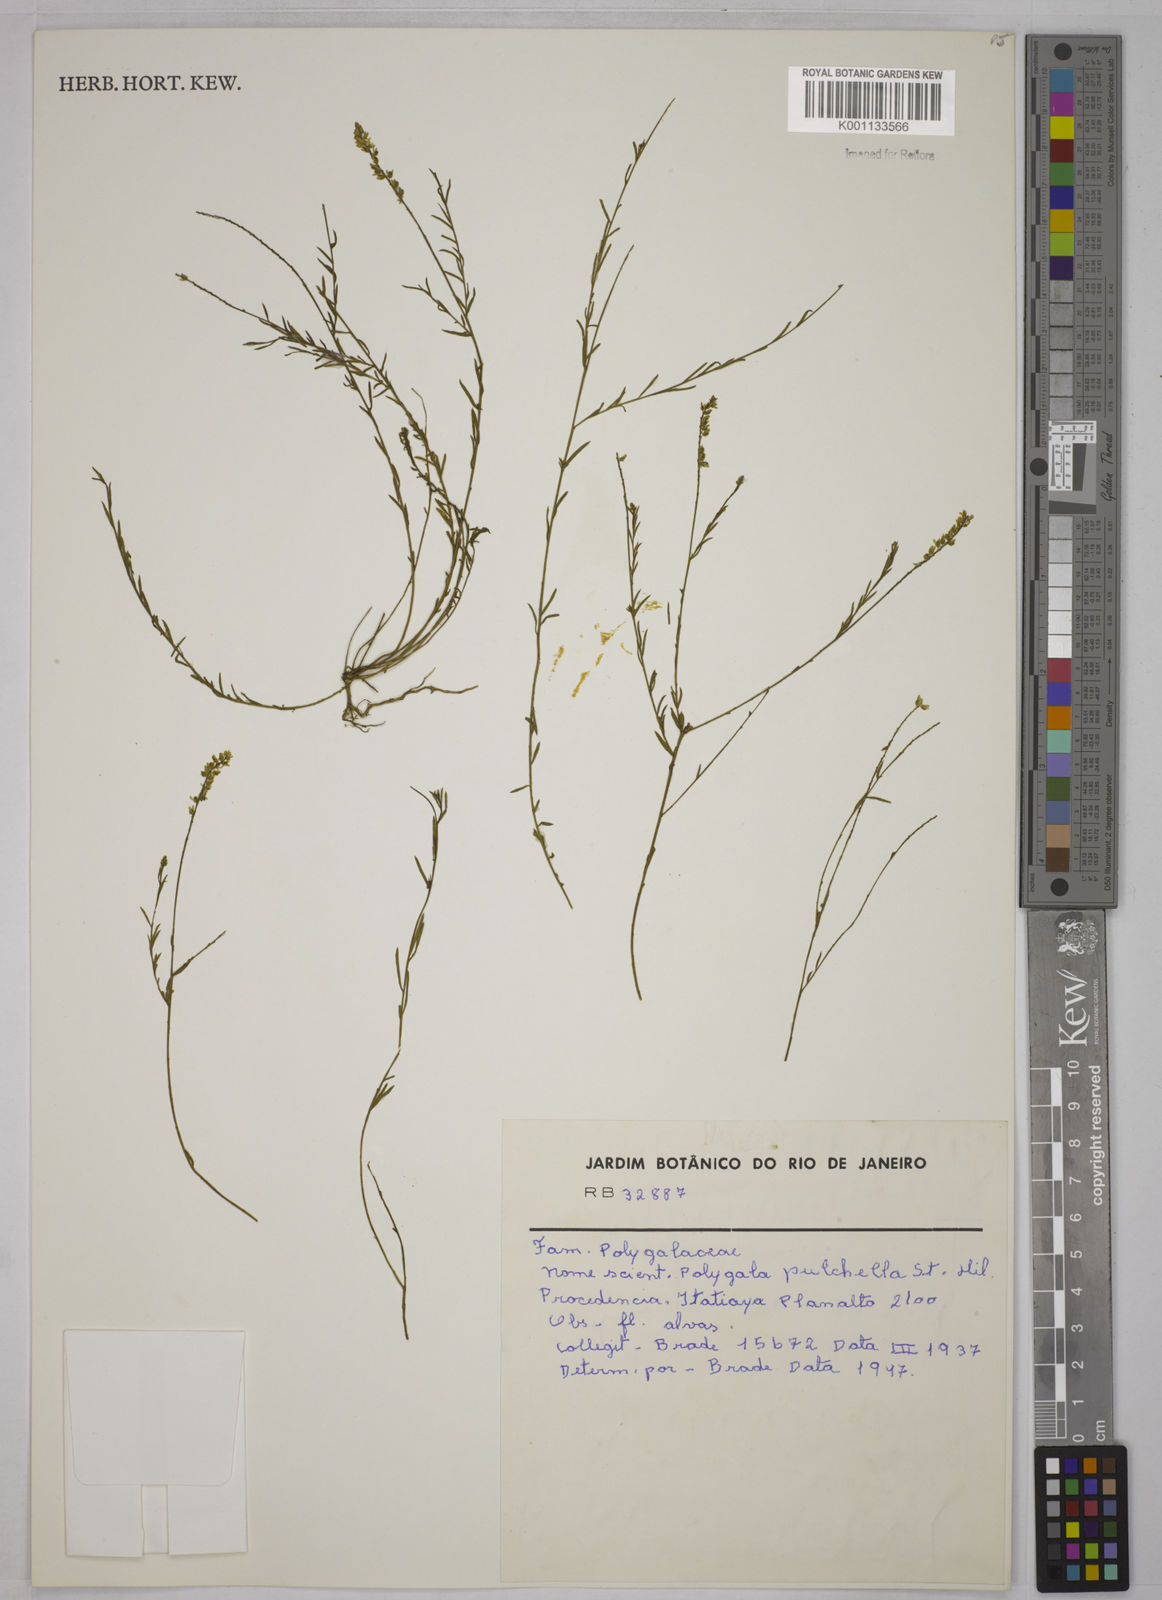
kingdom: Plantae
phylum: Tracheophyta
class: Magnoliopsida
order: Fabales
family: Polygalaceae
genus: Polygala
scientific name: Polygala pulchella
